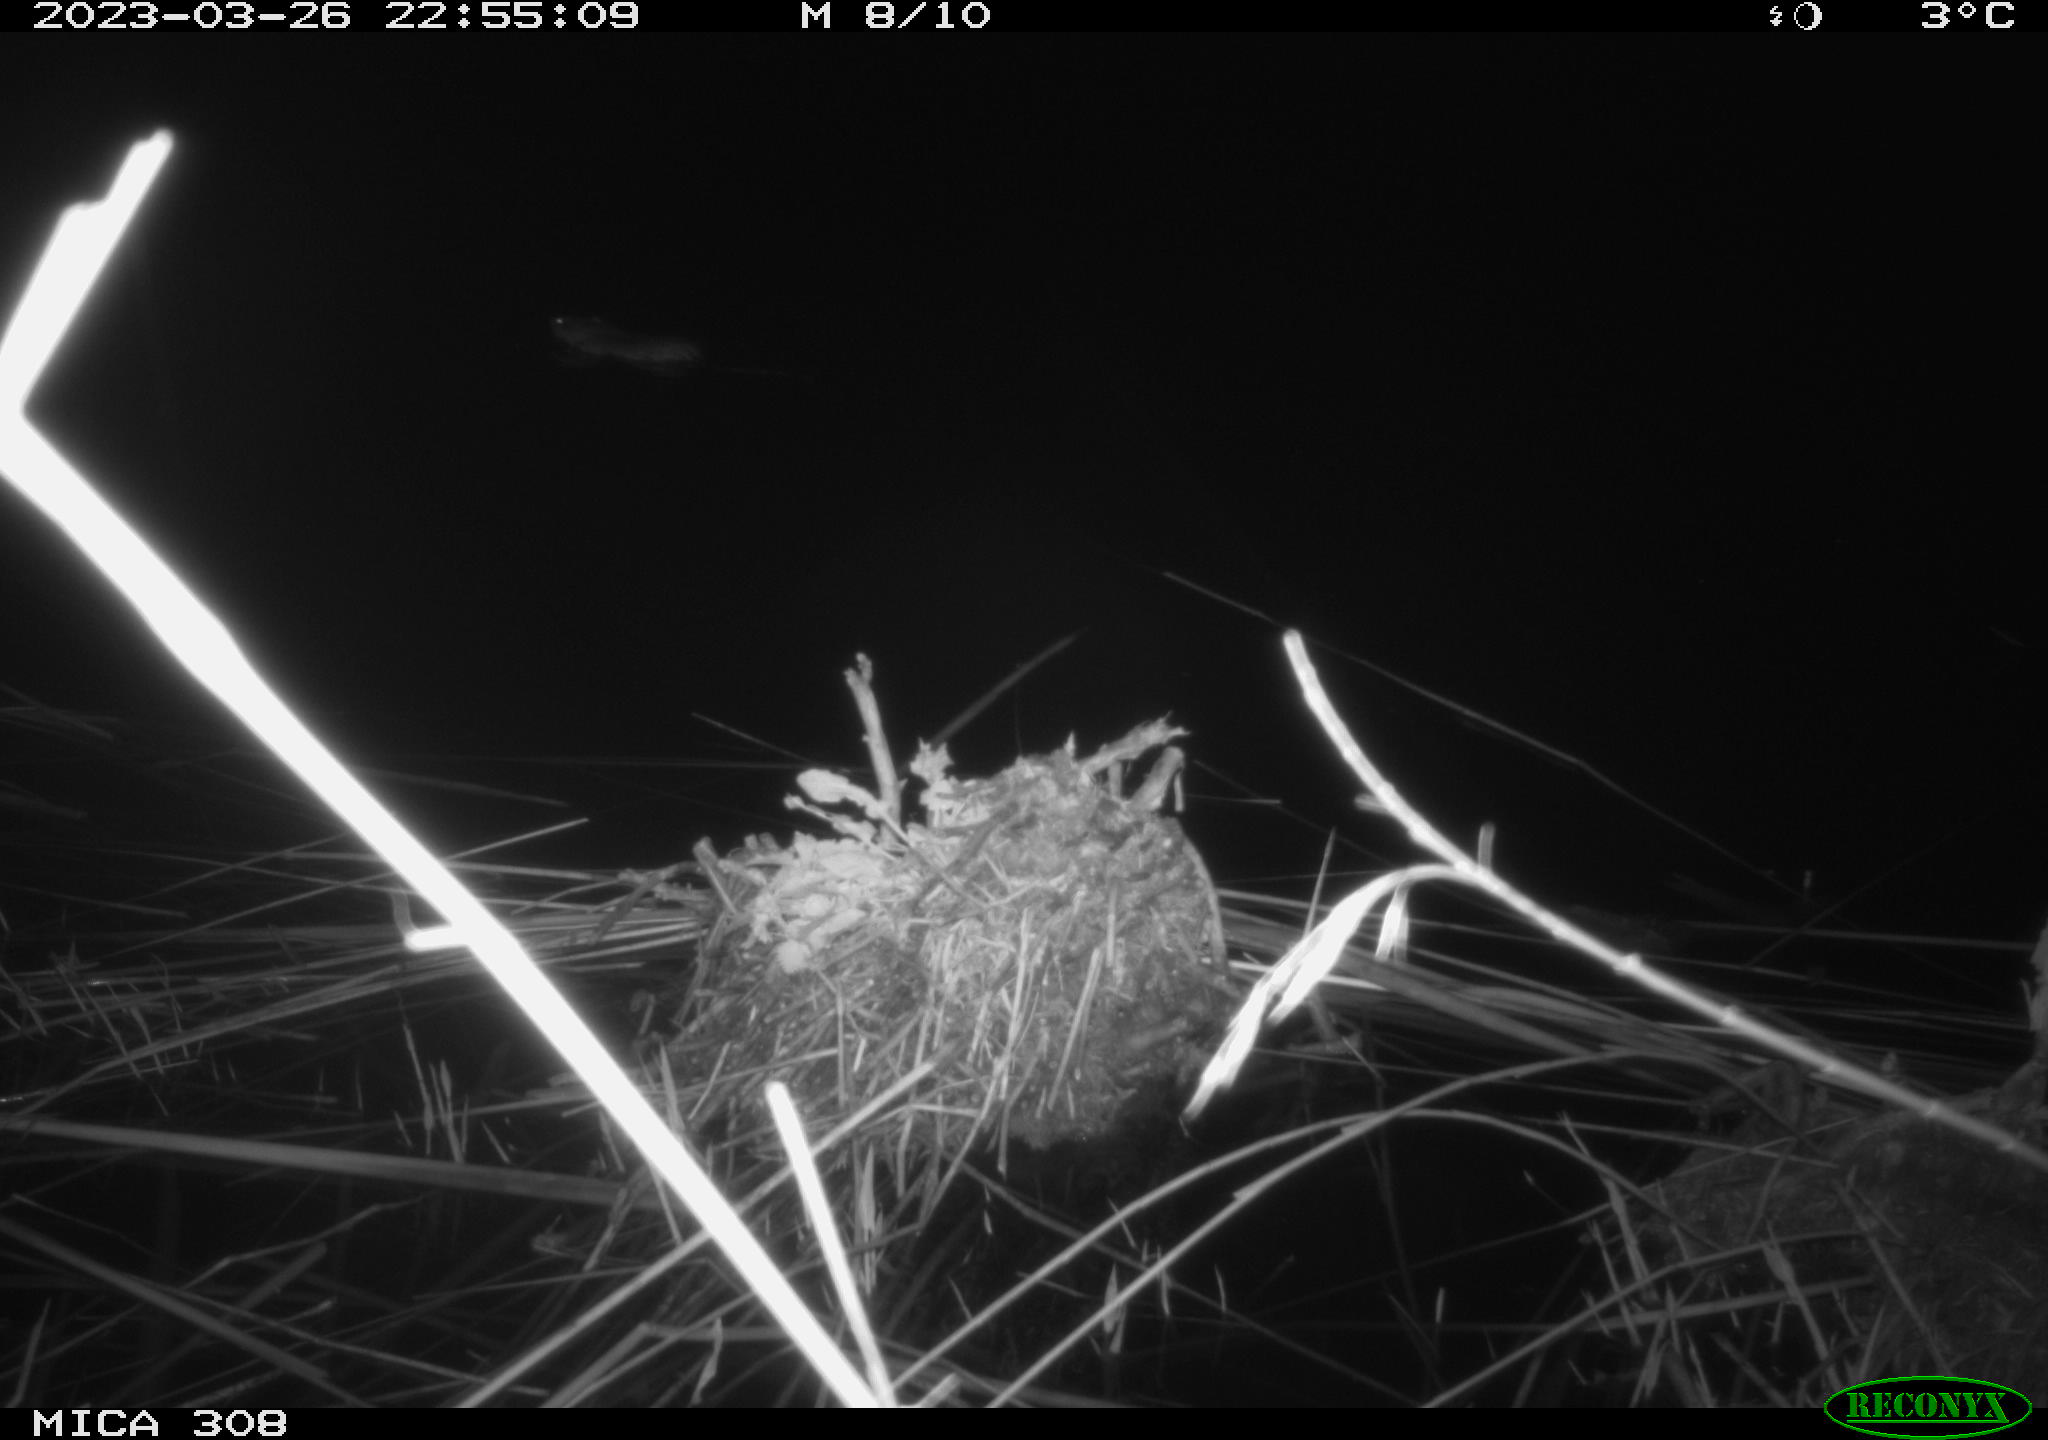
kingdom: Animalia
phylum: Chordata
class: Mammalia
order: Rodentia
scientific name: Rodentia
